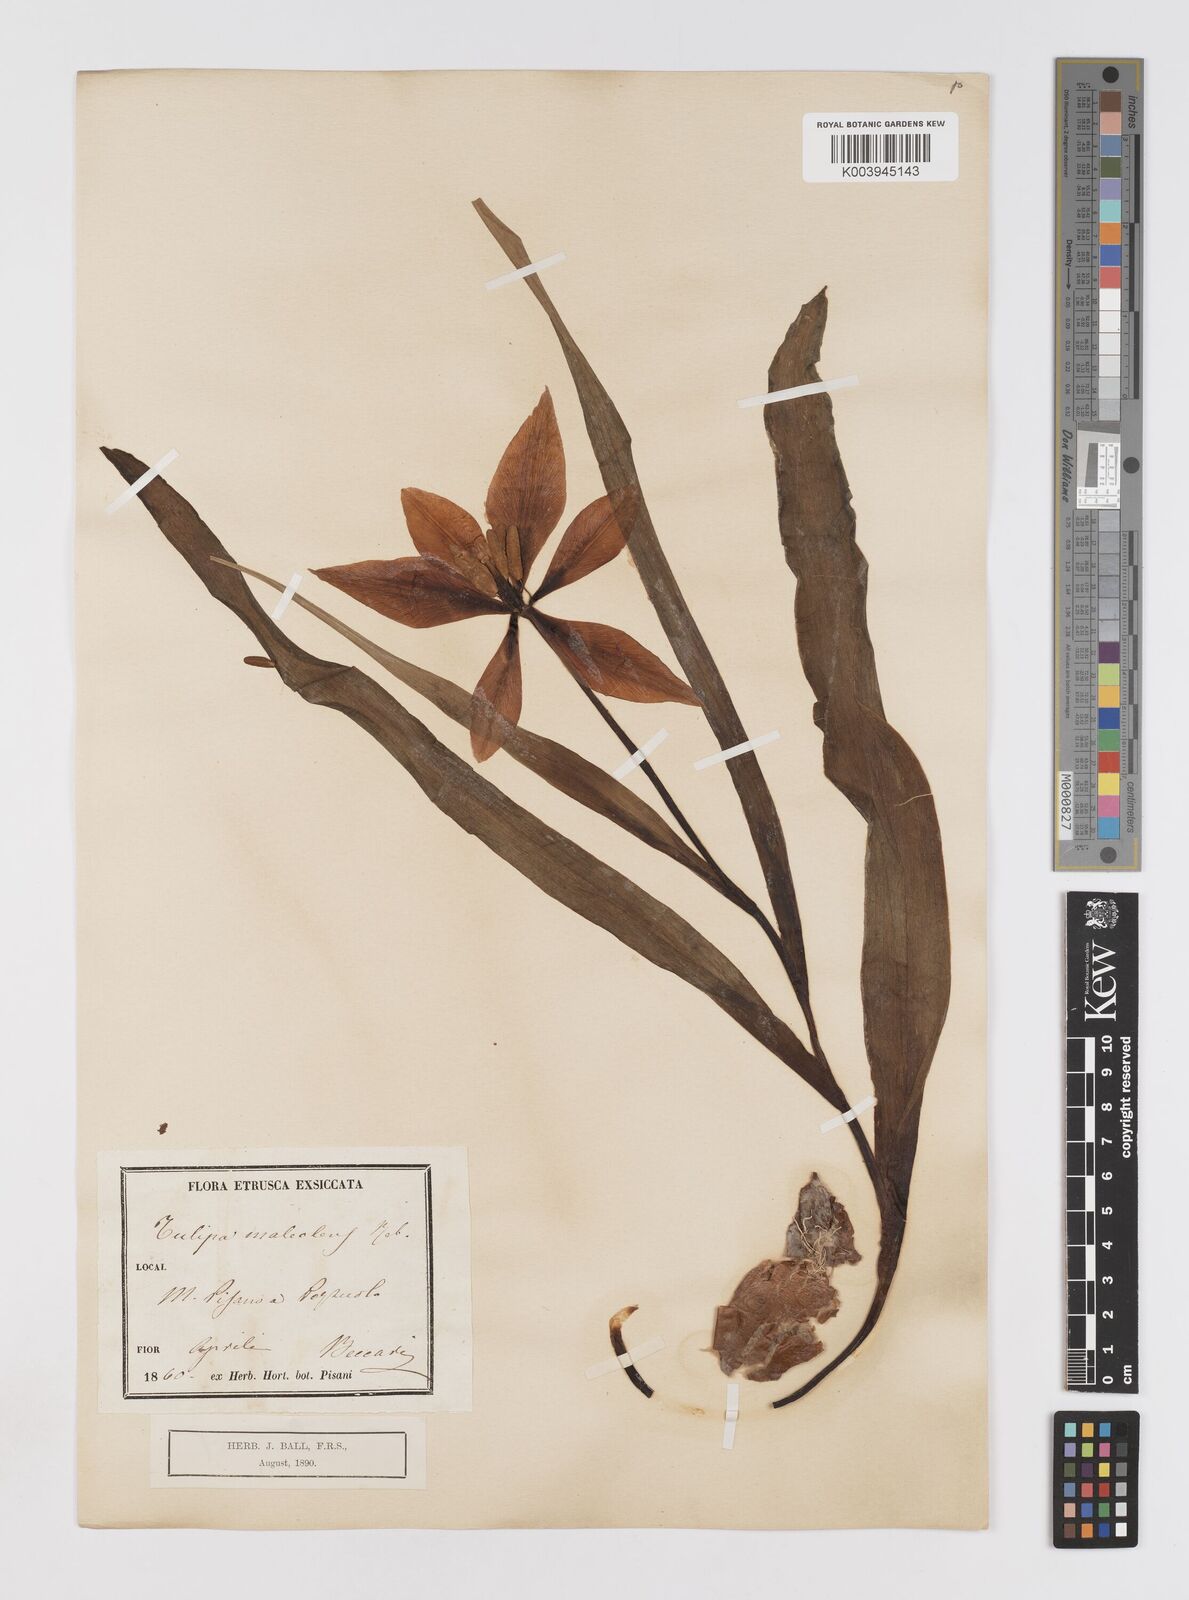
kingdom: Plantae
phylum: Tracheophyta
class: Liliopsida
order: Liliales
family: Liliaceae
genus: Tulipa
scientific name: Tulipa agenensis
